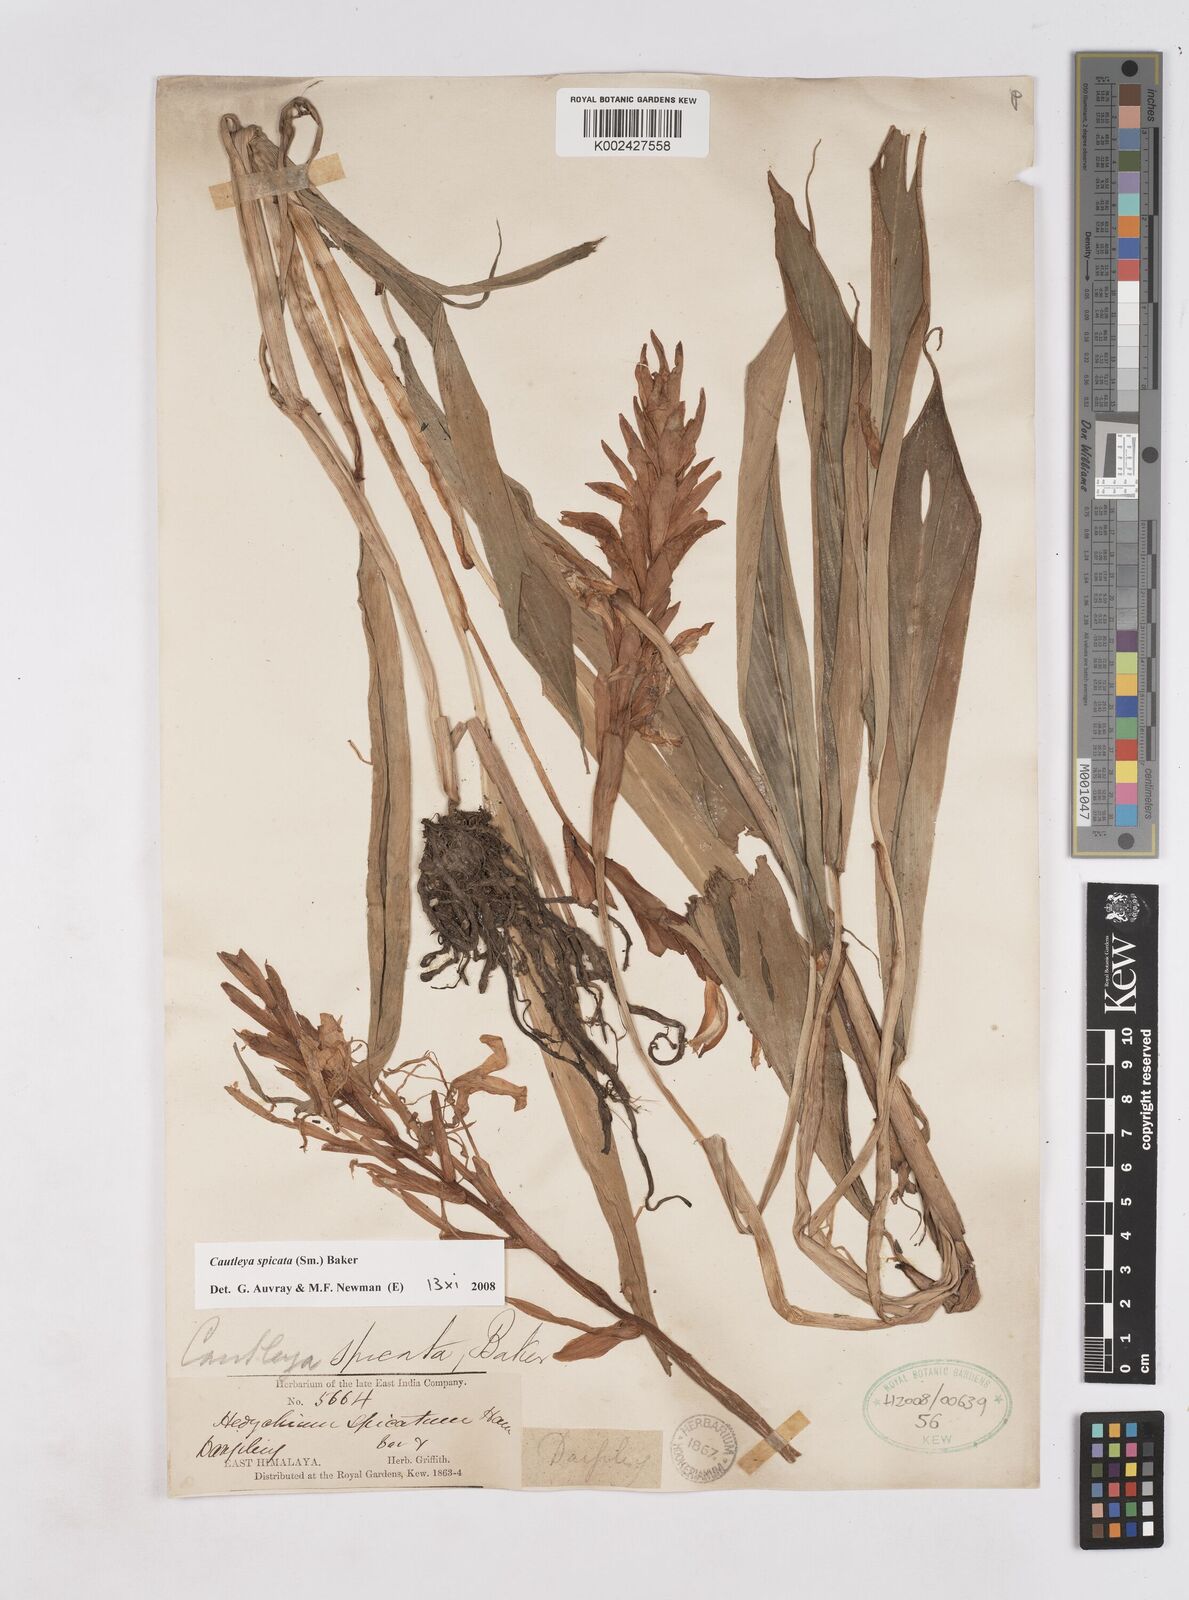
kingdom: Plantae
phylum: Tracheophyta
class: Liliopsida
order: Zingiberales
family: Zingiberaceae
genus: Cautleya
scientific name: Cautleya spicata
